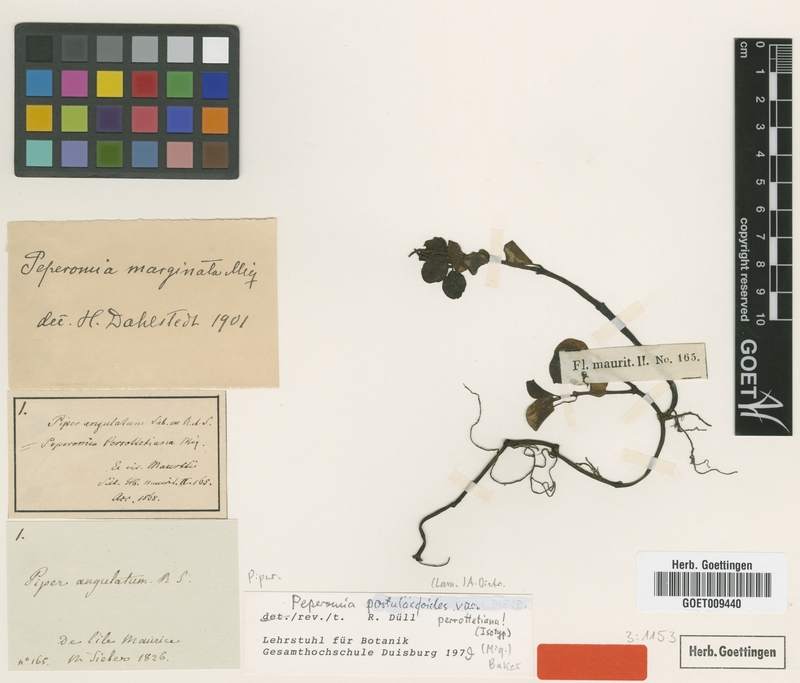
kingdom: Plantae
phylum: Tracheophyta
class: Magnoliopsida
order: Piperales
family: Piperaceae
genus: Peperomia
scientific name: Peperomia portulacoides
